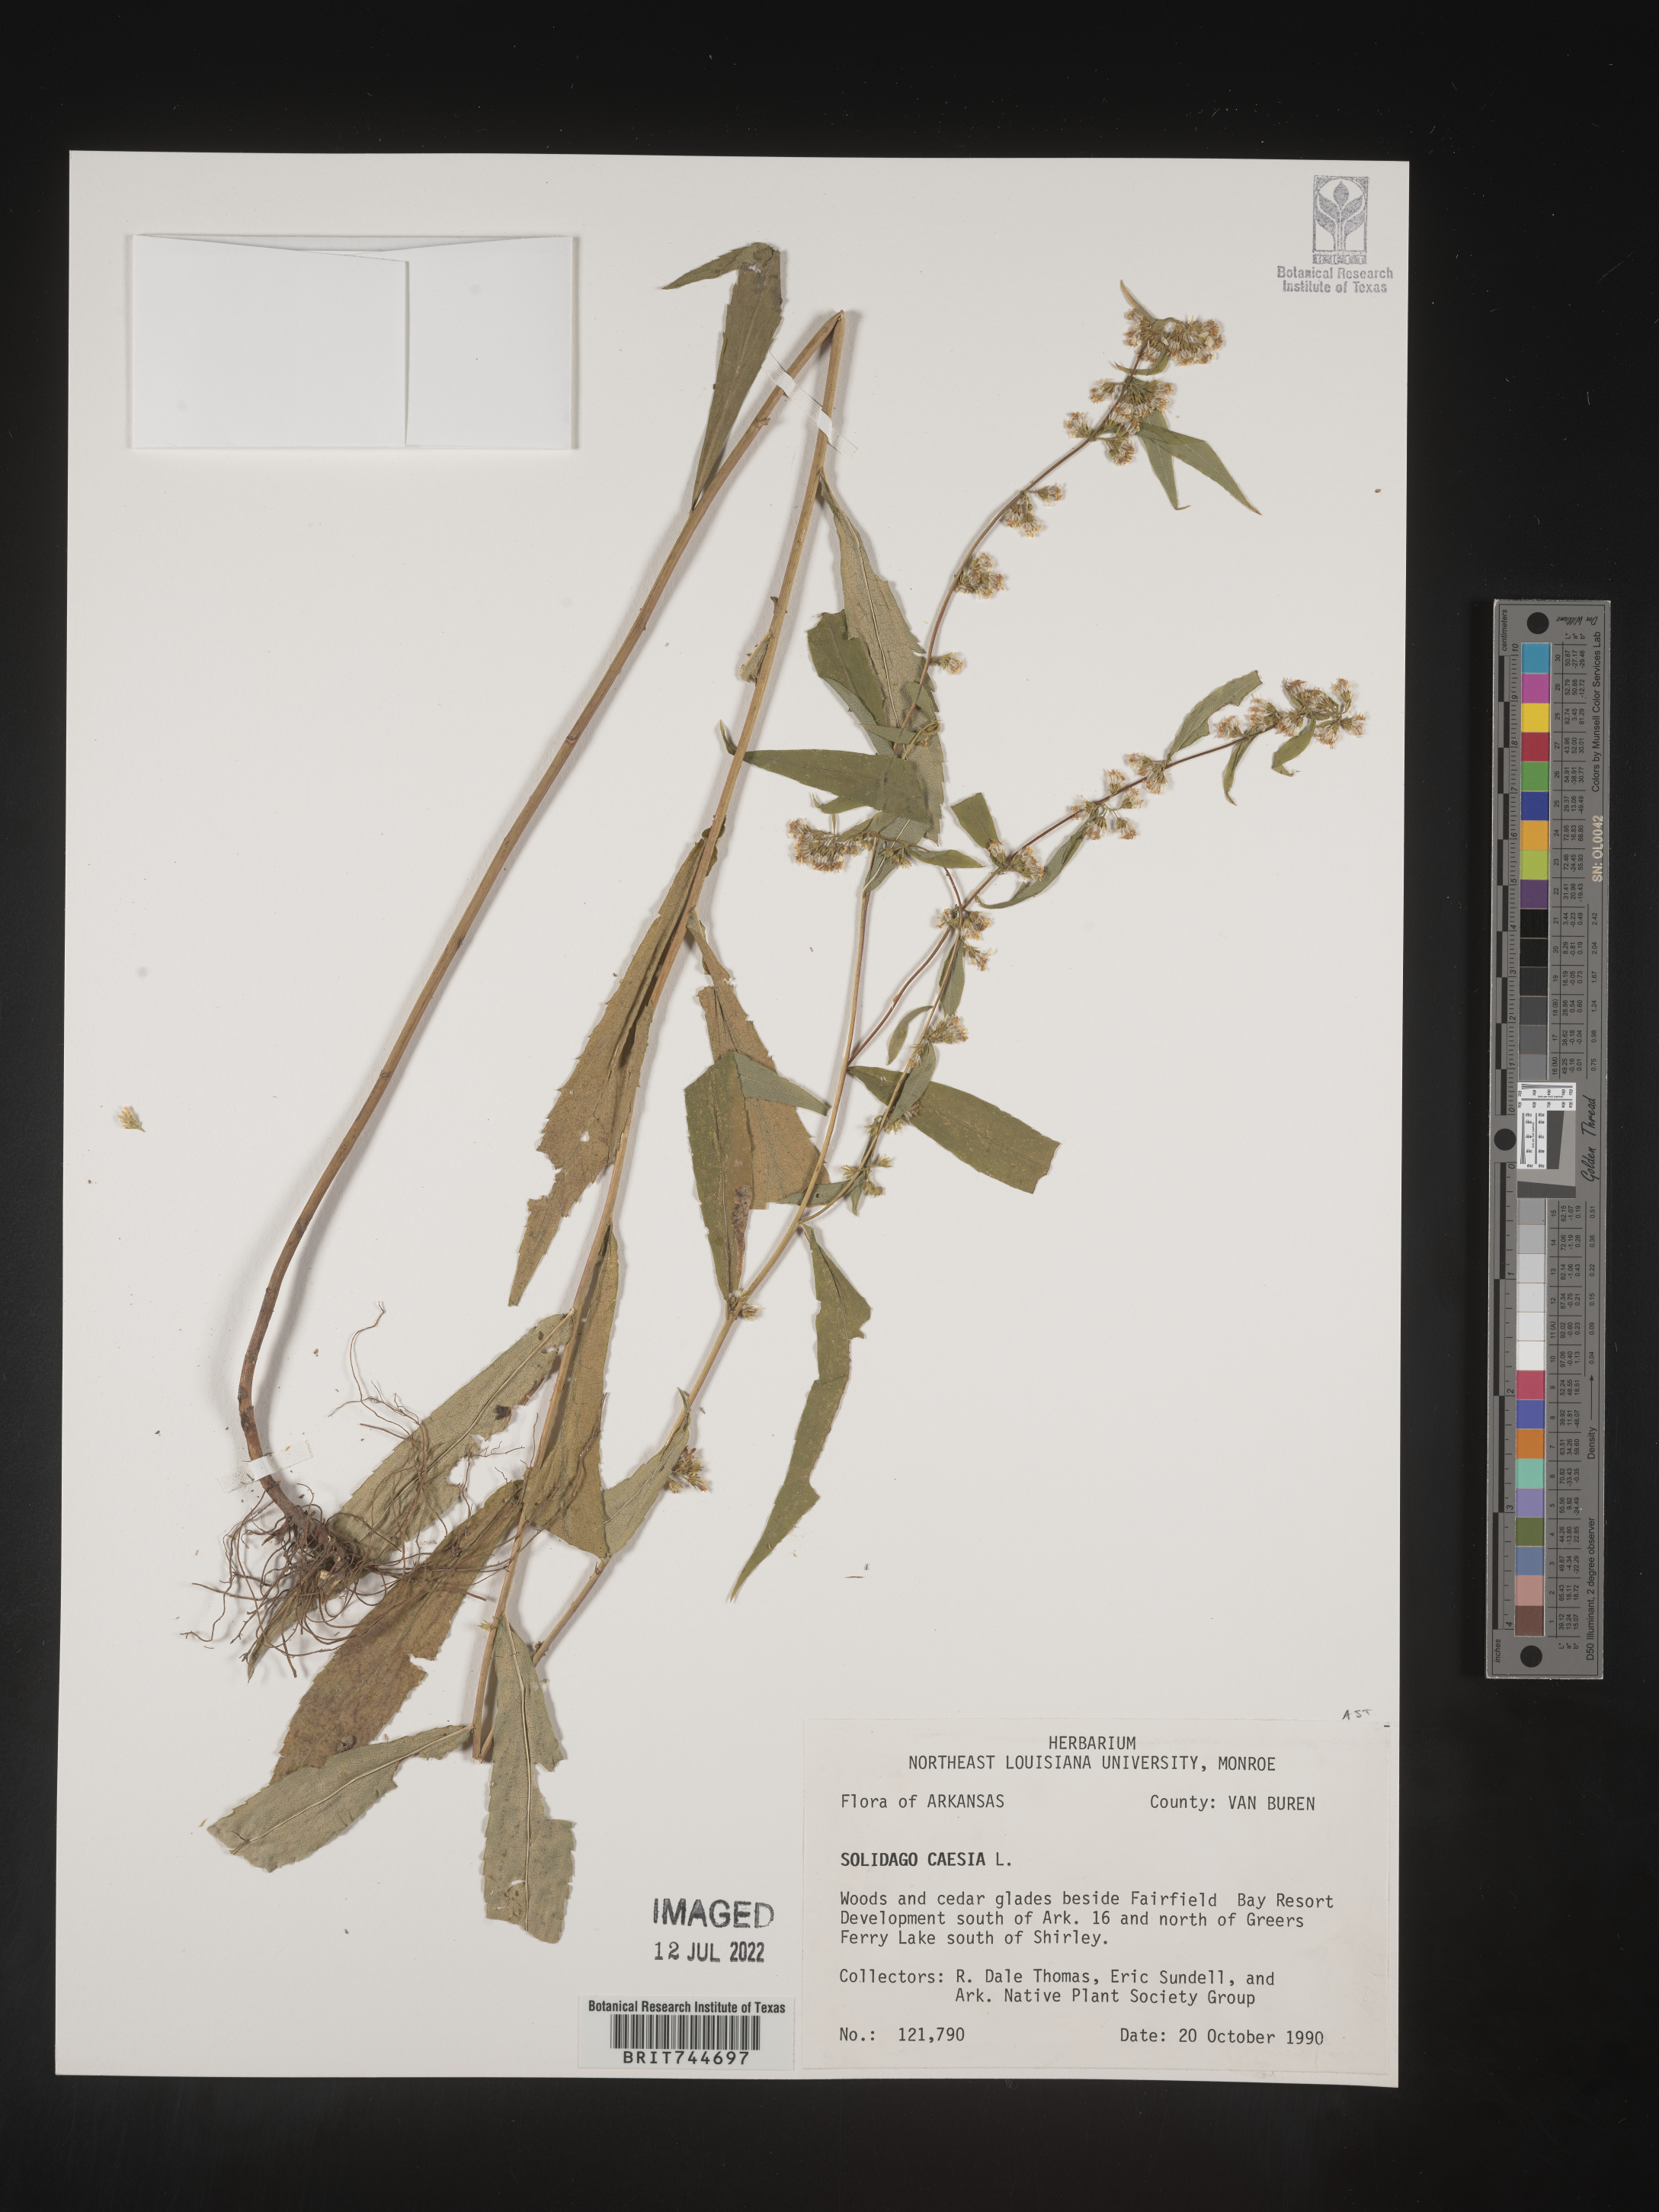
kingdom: Plantae
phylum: Tracheophyta
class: Magnoliopsida
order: Asterales
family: Asteraceae
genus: Solidago
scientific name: Solidago caesia
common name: Woodland goldenrod
